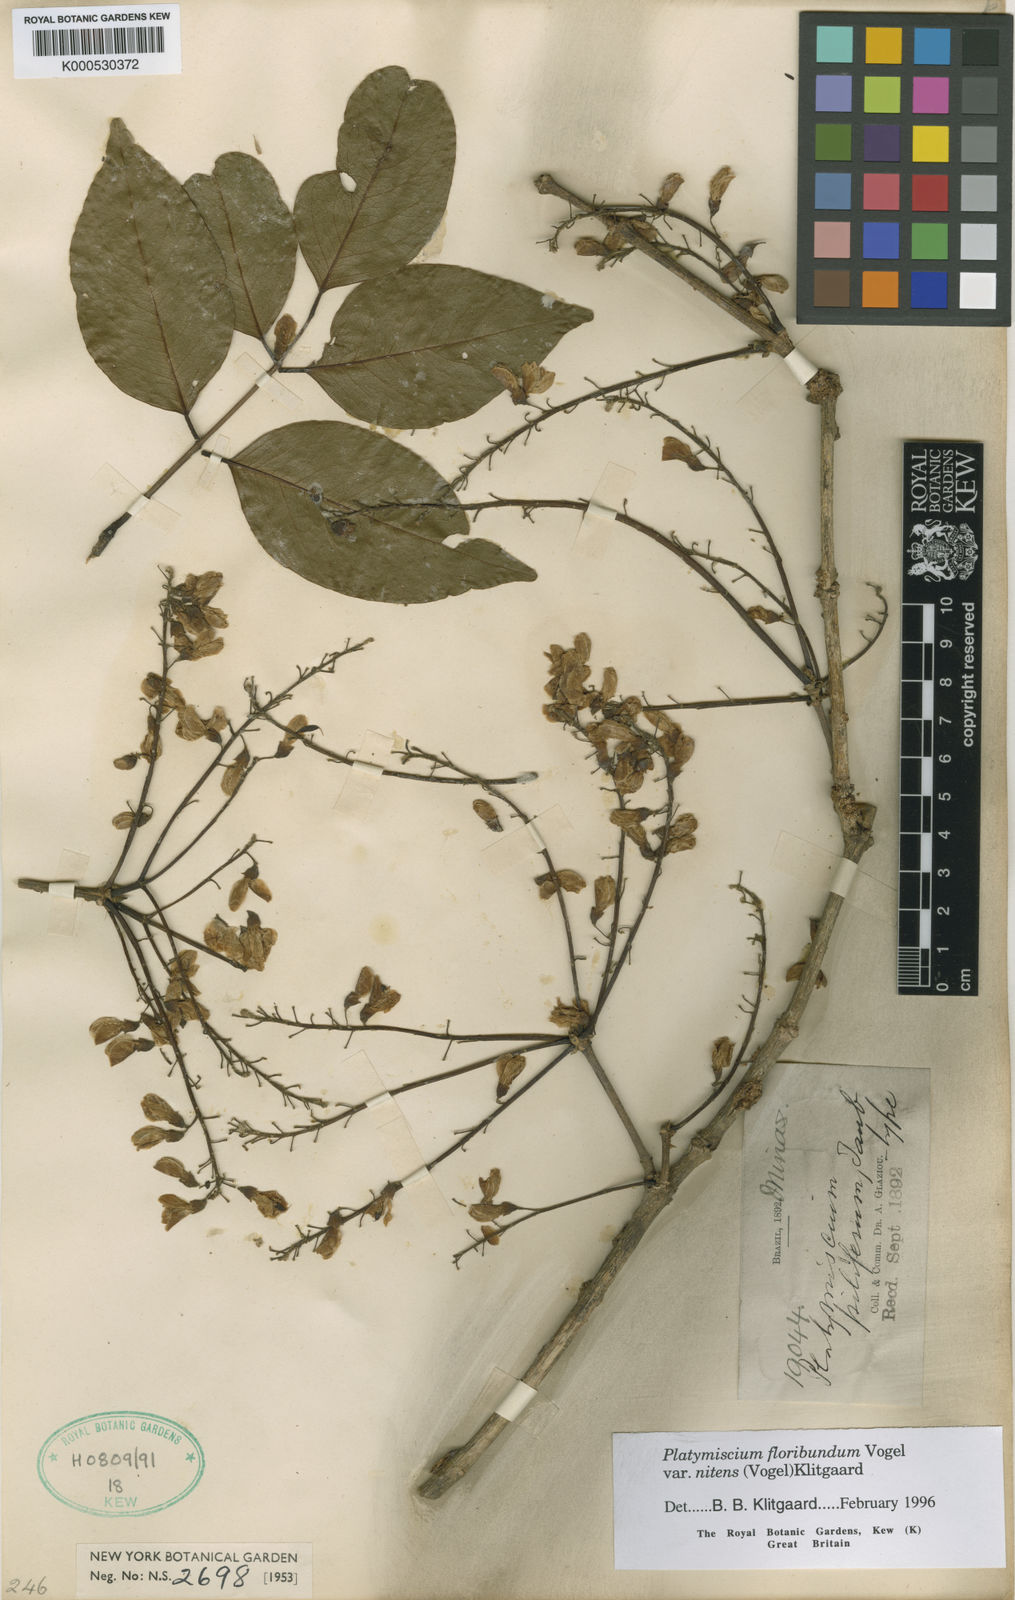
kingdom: Plantae
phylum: Tracheophyta
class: Magnoliopsida
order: Fabales
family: Fabaceae
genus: Platymiscium
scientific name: Platymiscium floribundum
